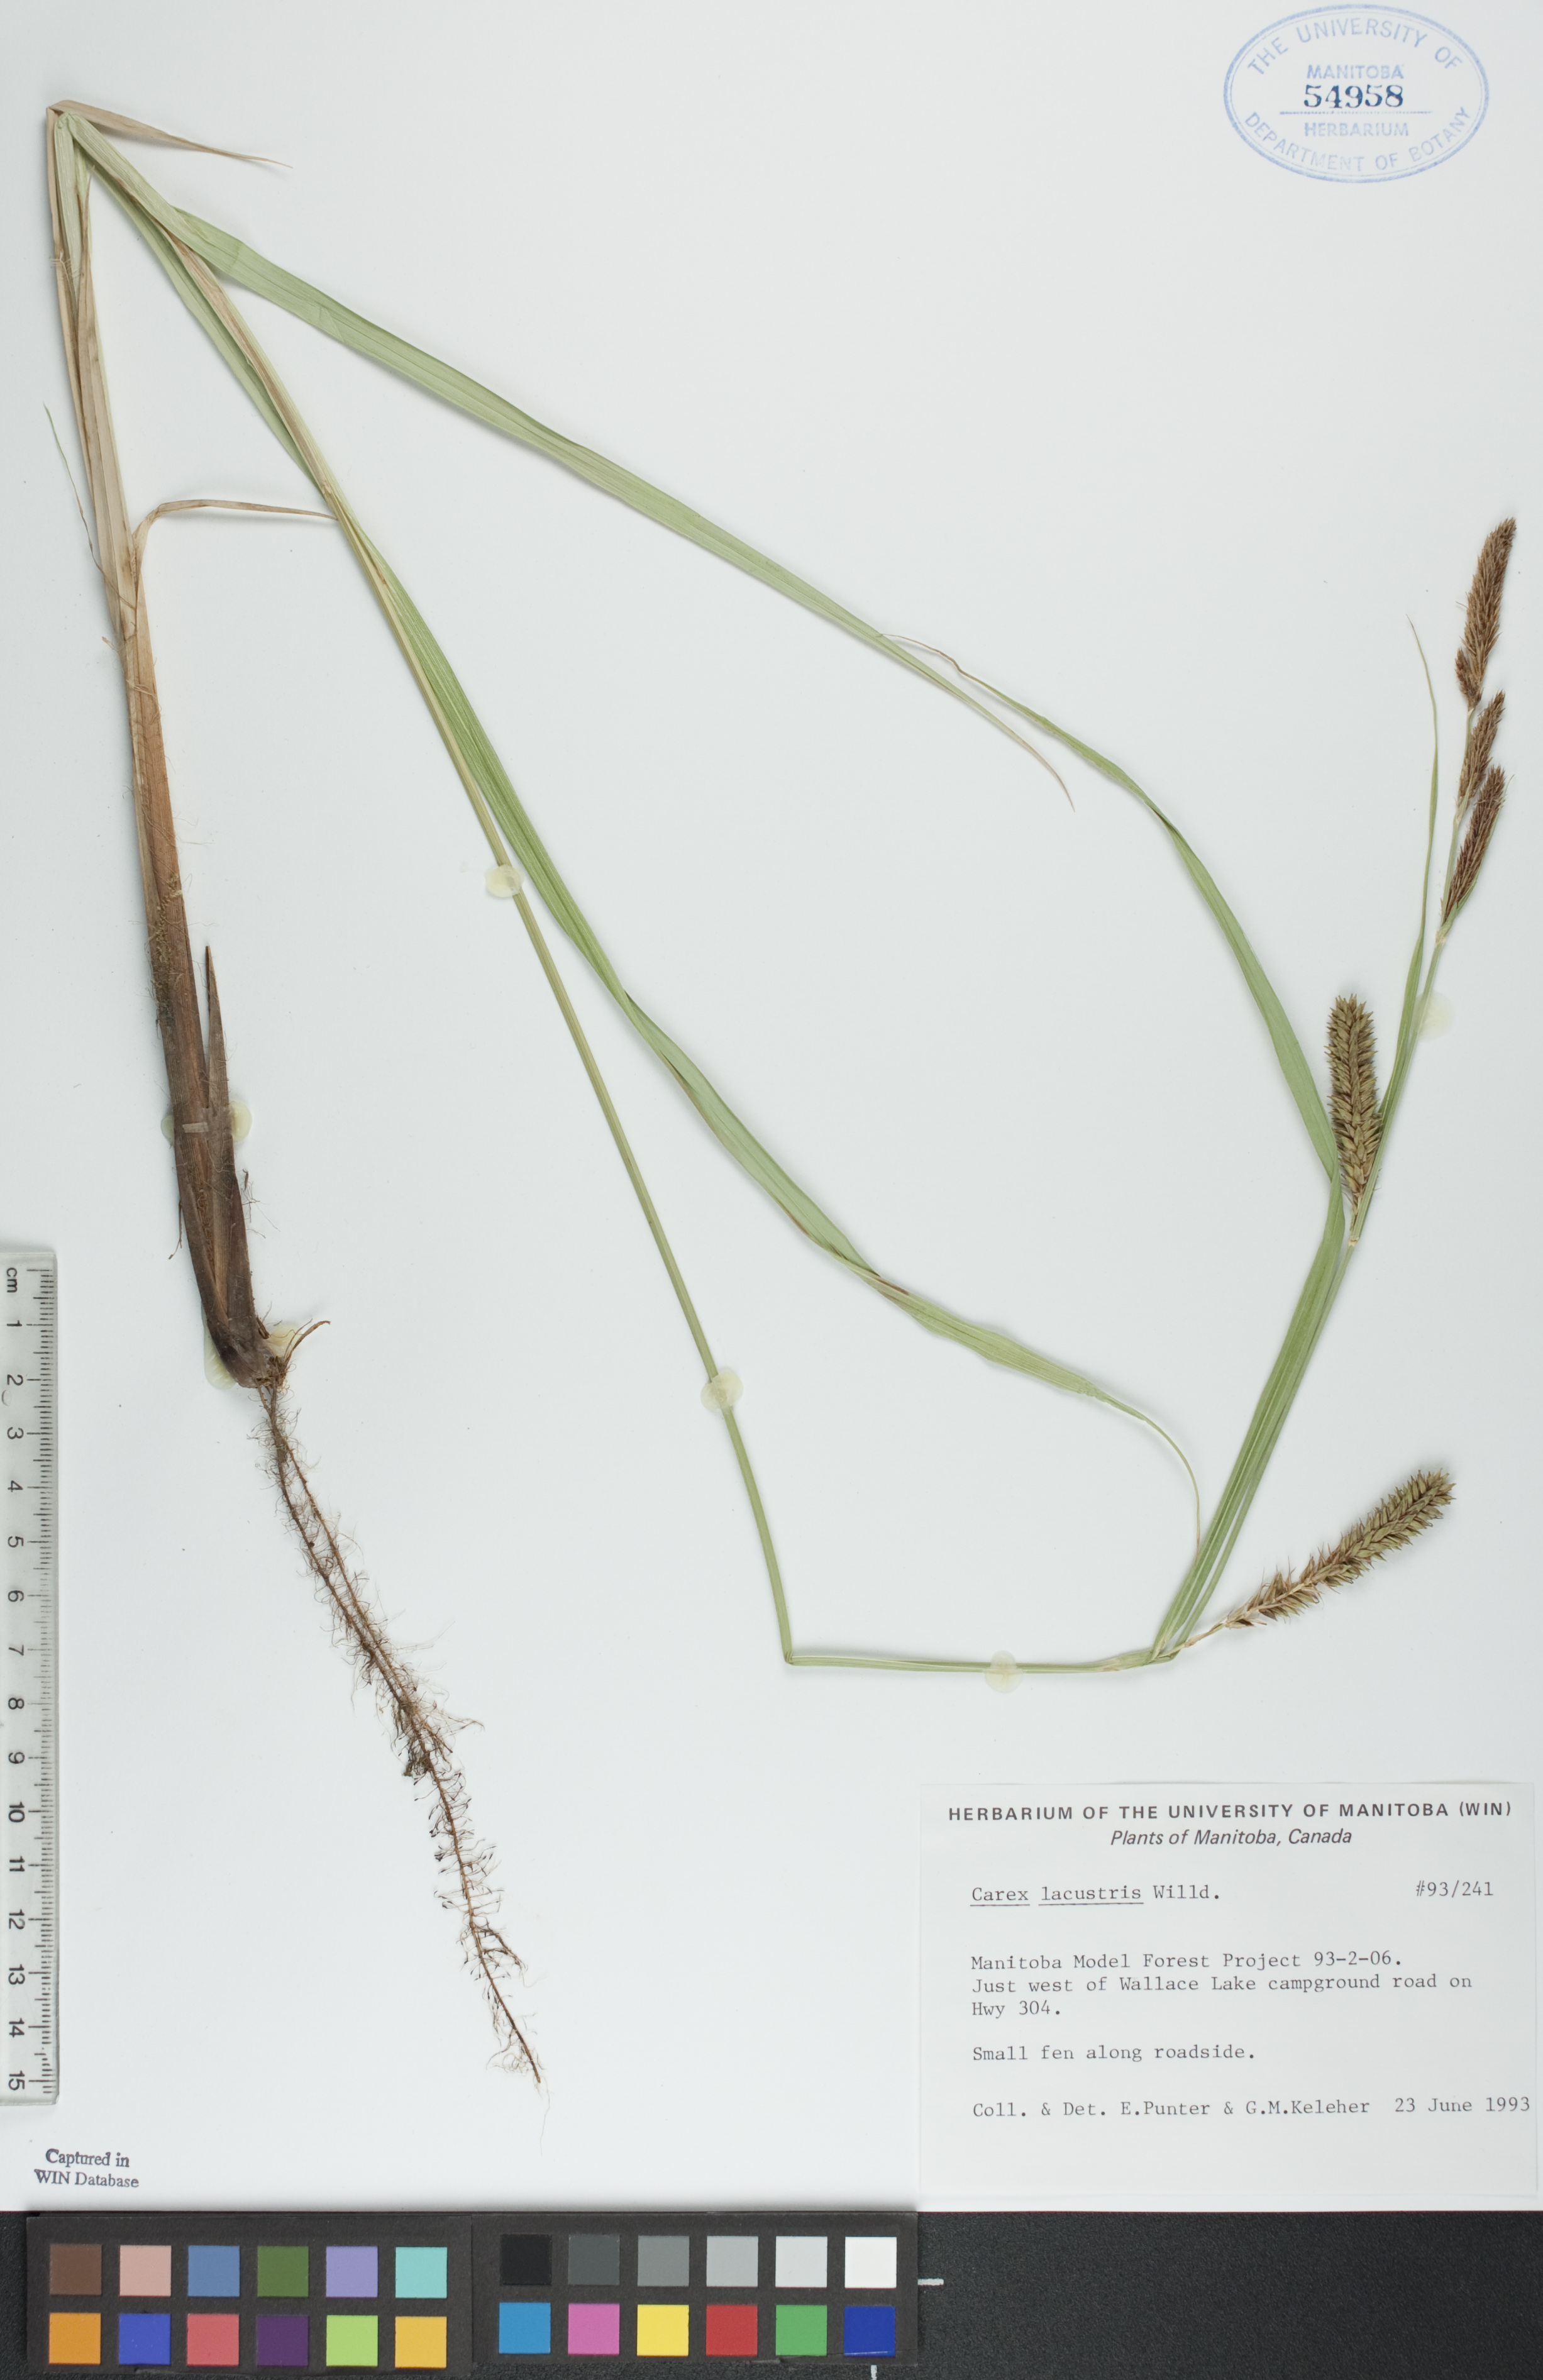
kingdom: Plantae
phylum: Tracheophyta
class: Liliopsida
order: Poales
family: Cyperaceae
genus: Carex
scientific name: Carex lacustris
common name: Common lake sedge
